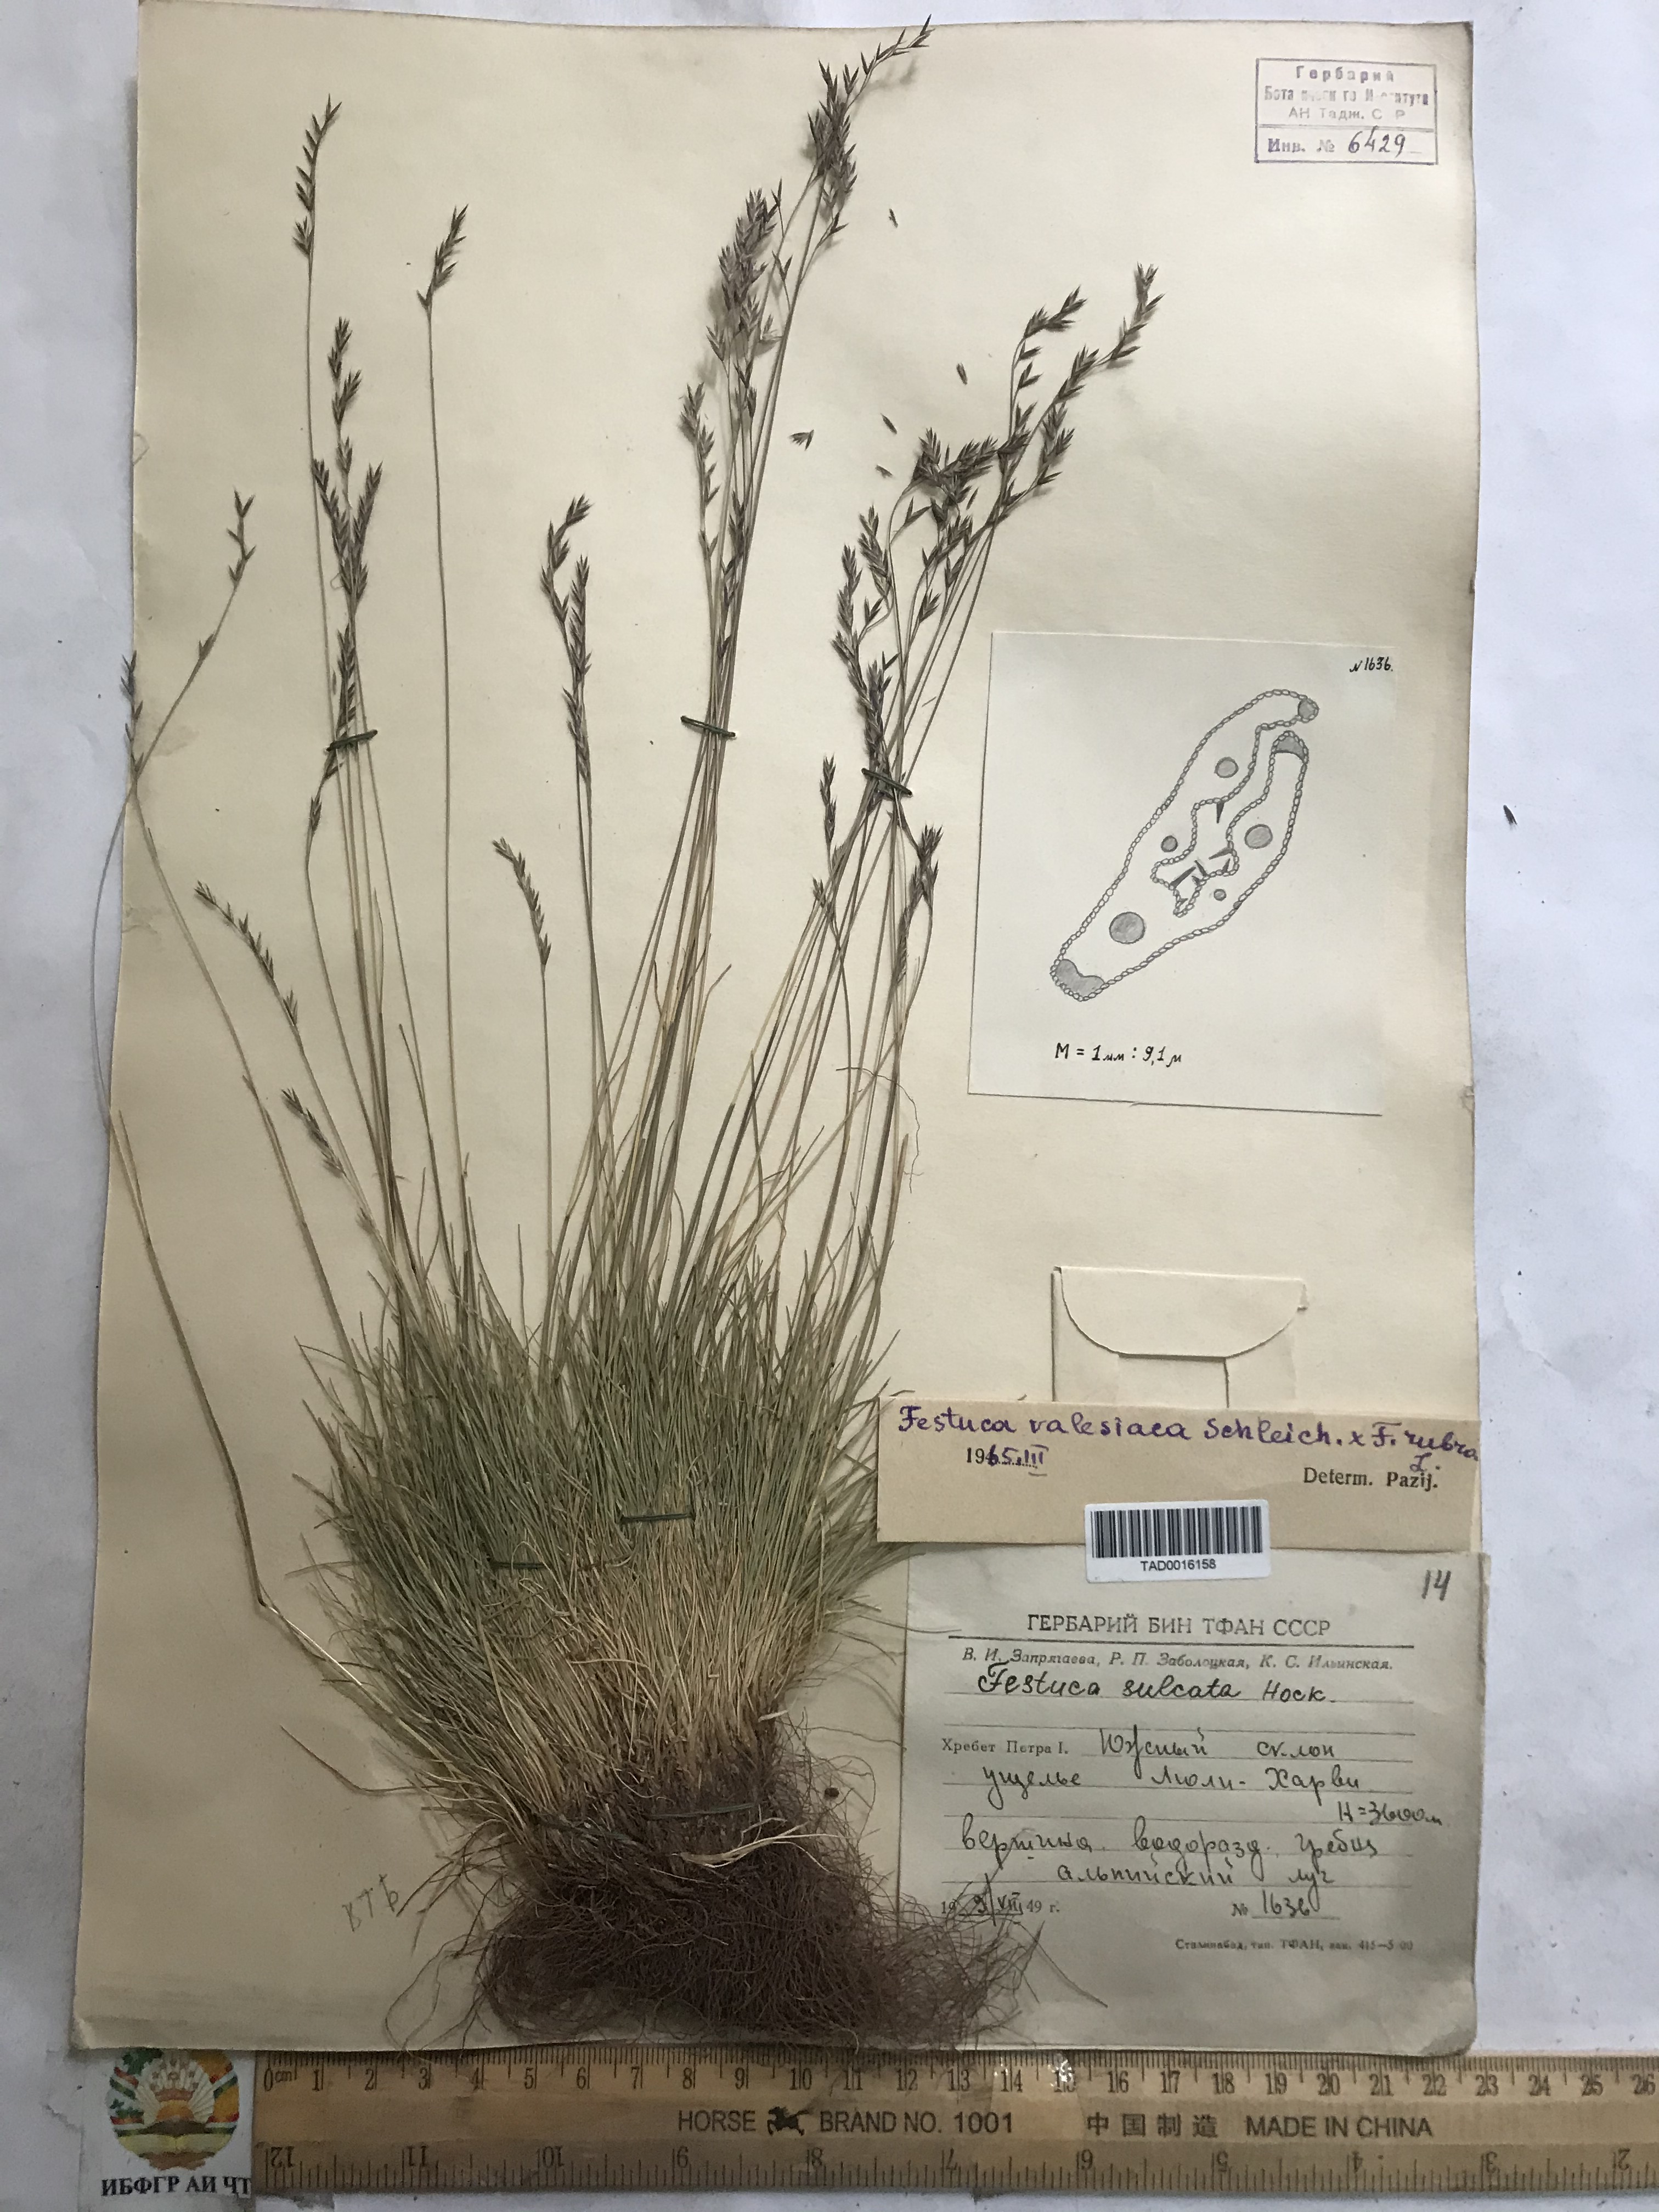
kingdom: Plantae
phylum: Tracheophyta
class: Liliopsida
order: Poales
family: Poaceae
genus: Festuca
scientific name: Festuca valesiaca
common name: Volga fescue
